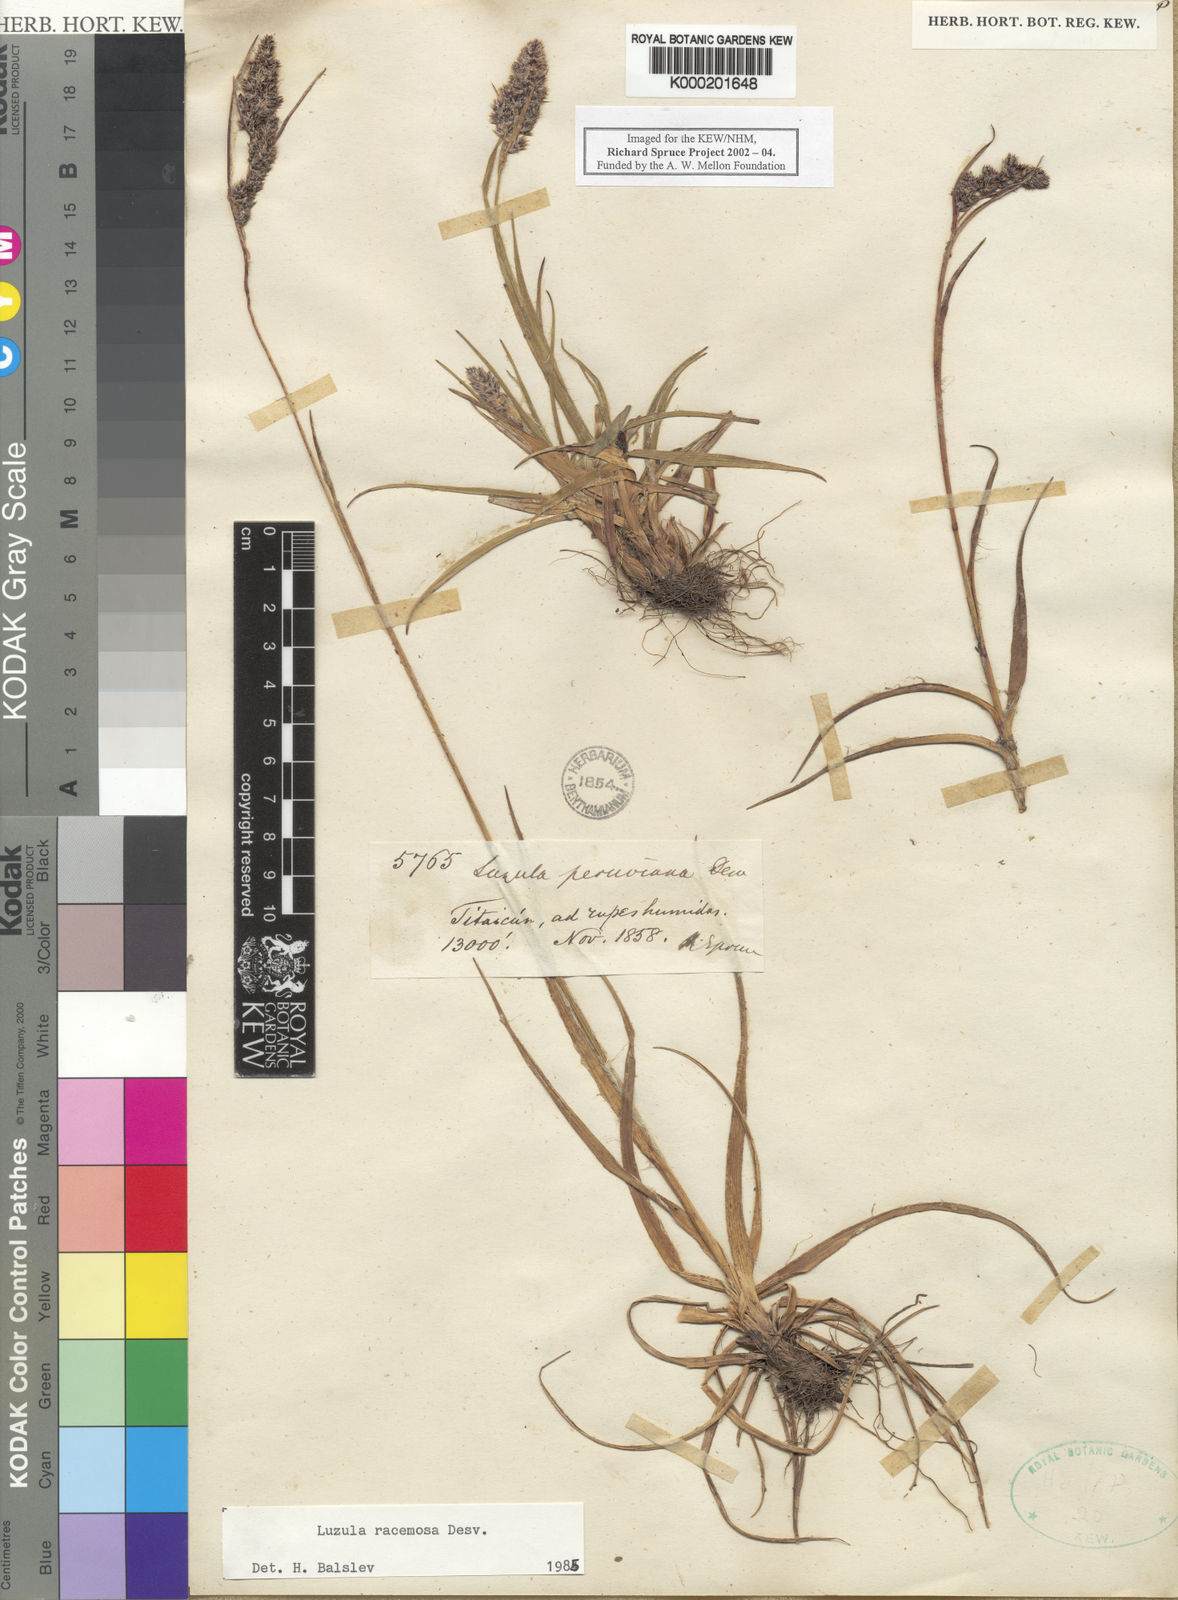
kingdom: Plantae
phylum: Tracheophyta
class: Liliopsida
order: Poales
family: Juncaceae
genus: Luzula
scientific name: Luzula racemosa
